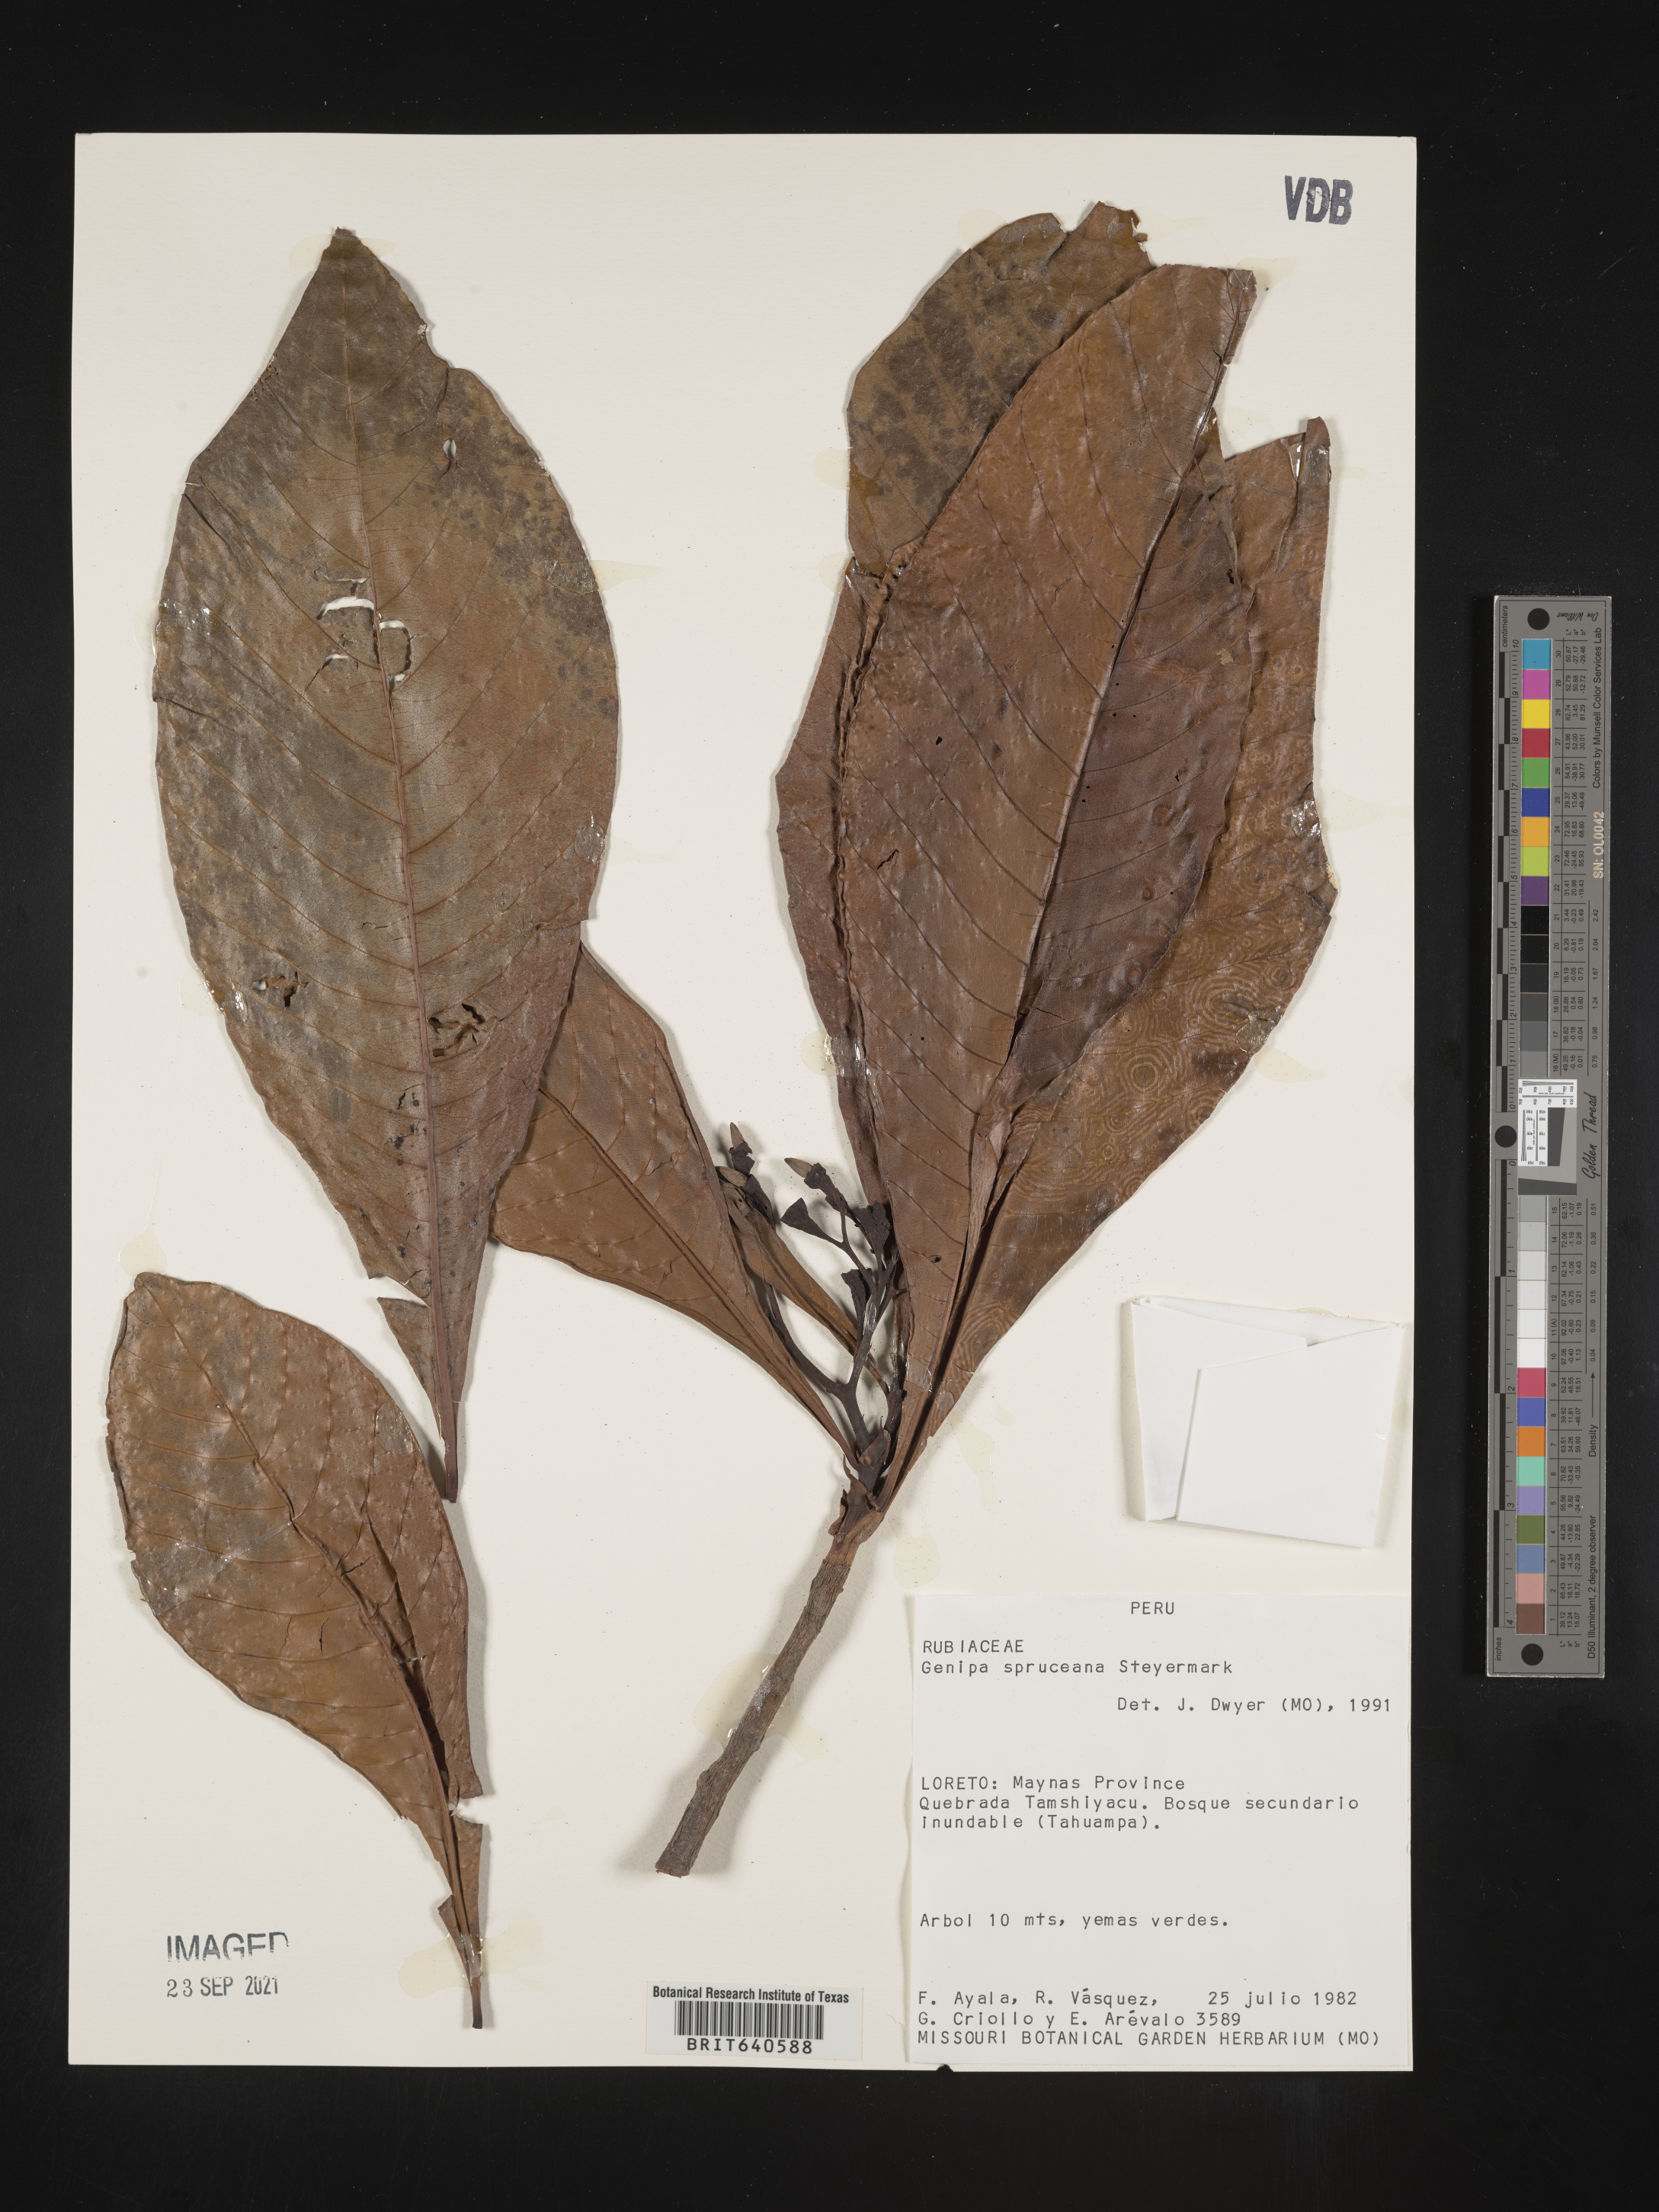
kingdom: Plantae
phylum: Tracheophyta
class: Magnoliopsida
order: Gentianales
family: Rubiaceae
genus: Genipa
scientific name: Genipa
